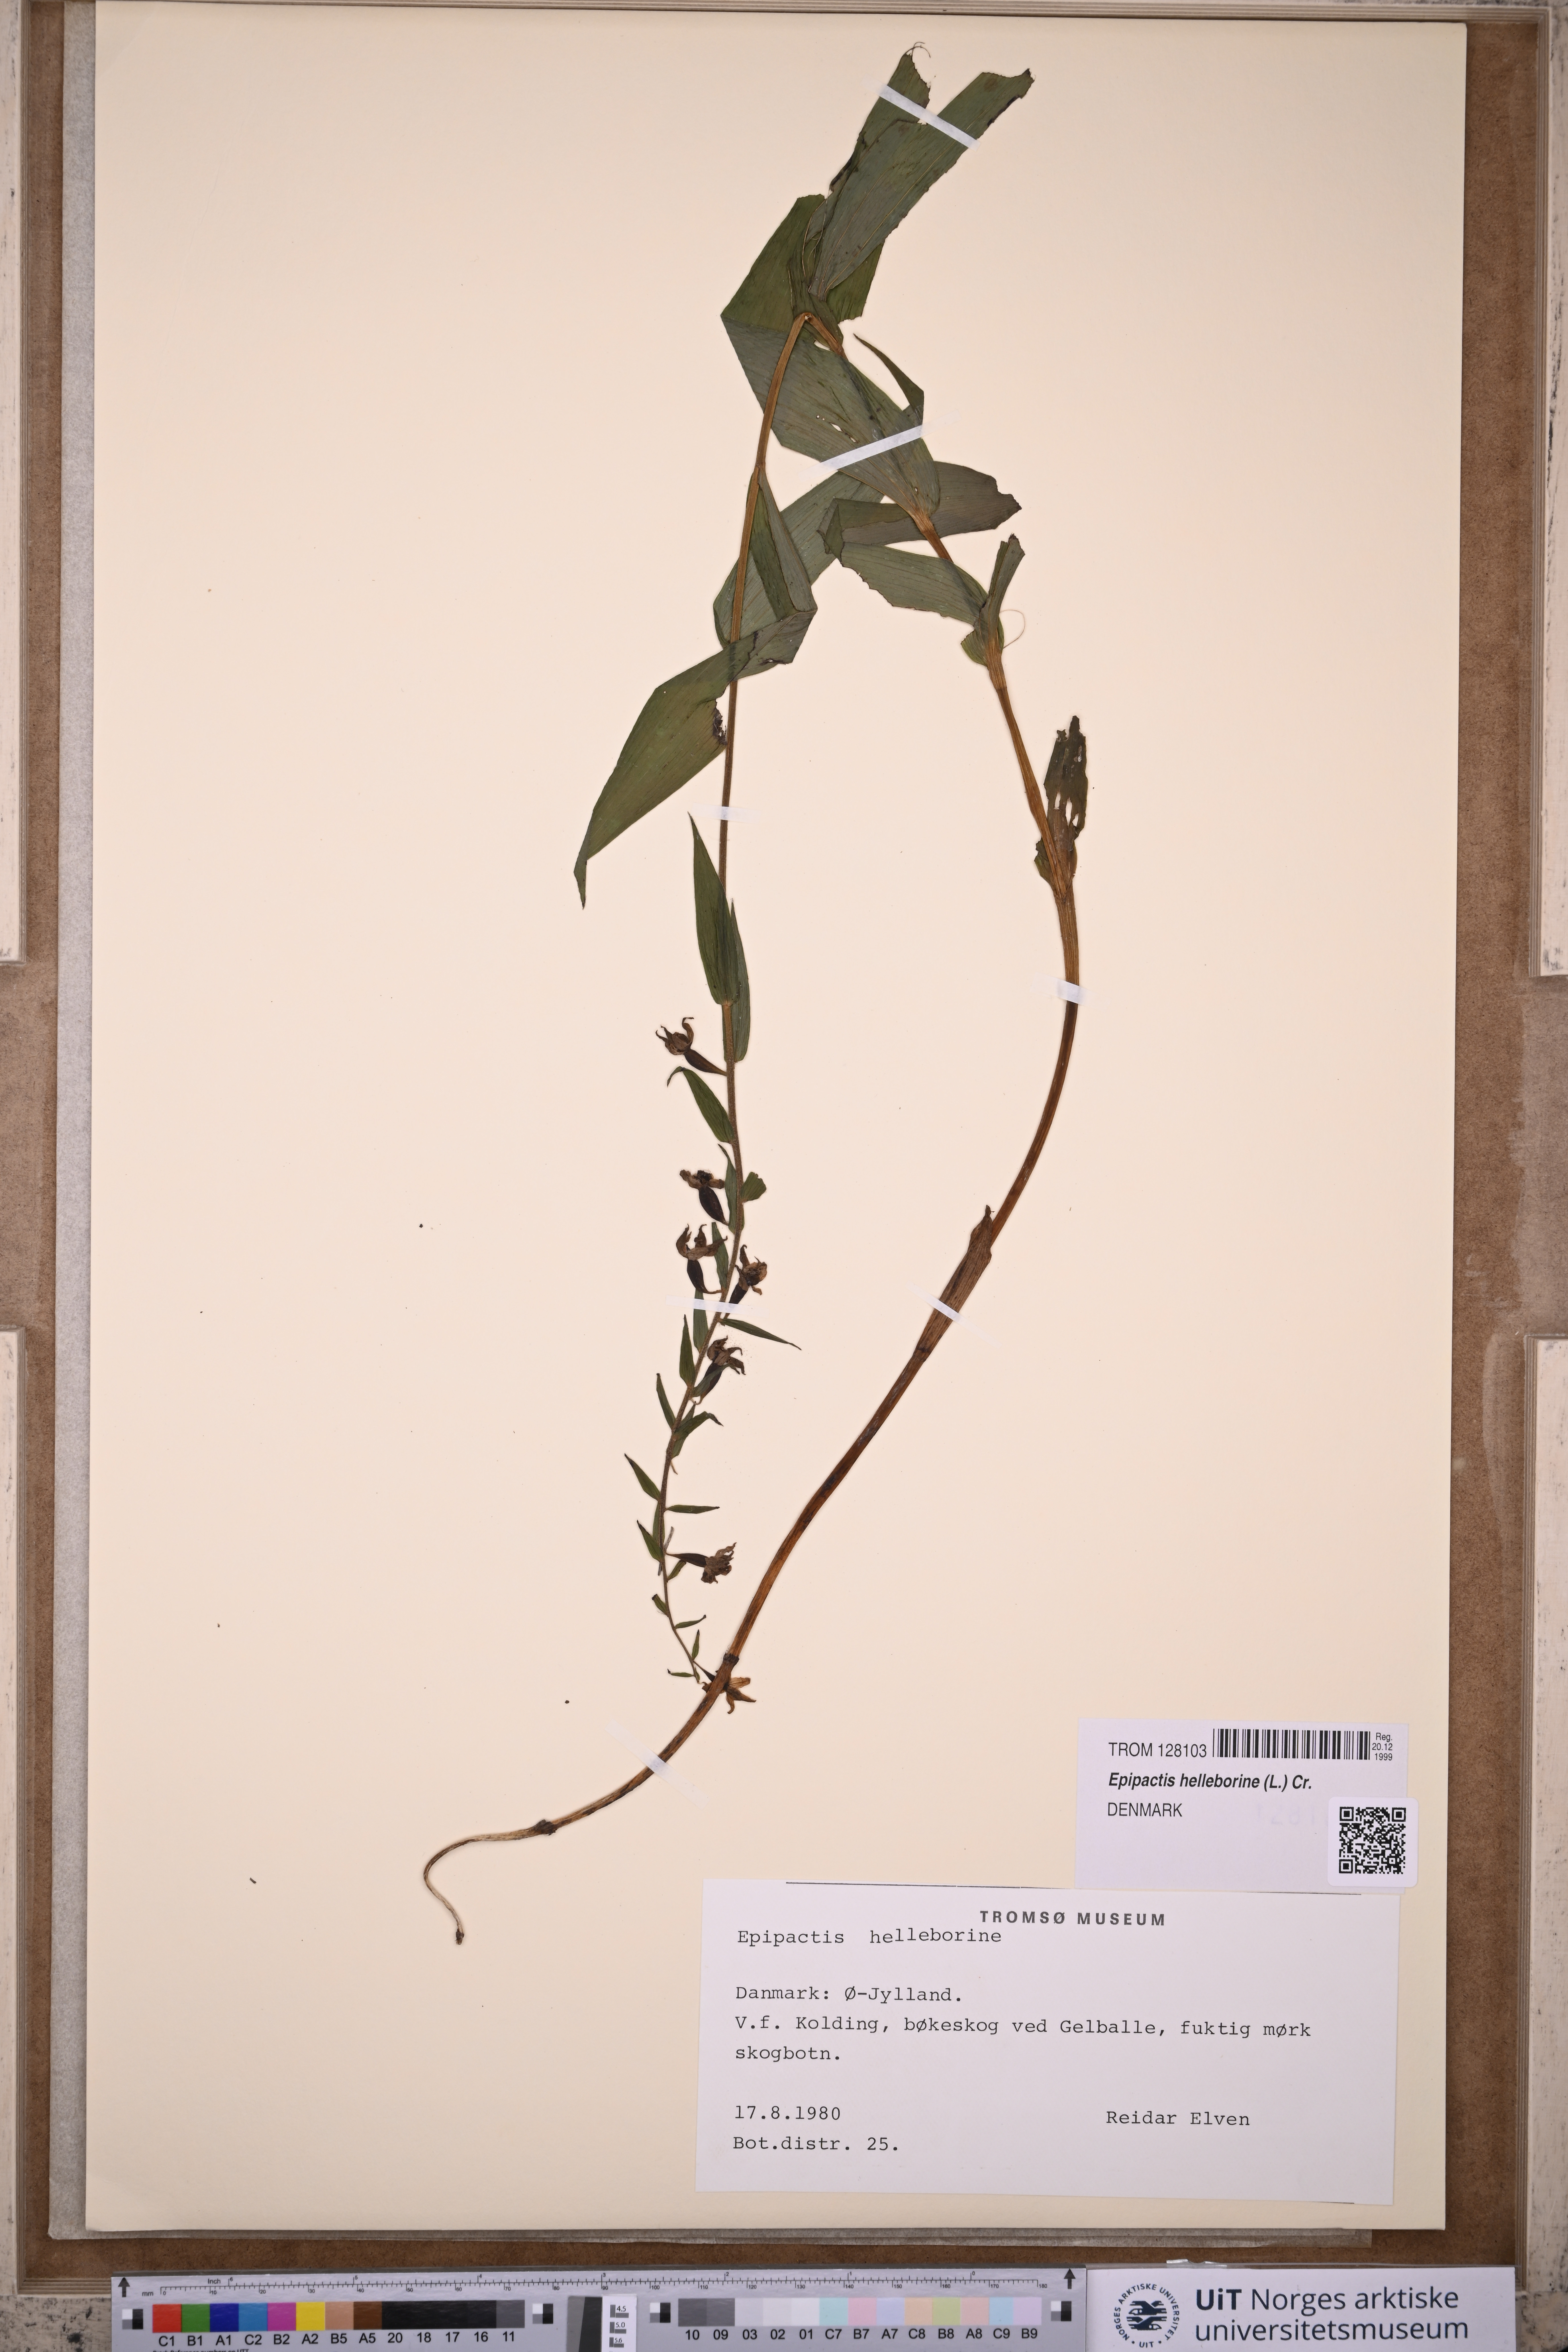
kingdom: Plantae
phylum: Tracheophyta
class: Liliopsida
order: Asparagales
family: Orchidaceae
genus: Epipactis
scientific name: Epipactis helleborine
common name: Broad-leaved helleborine
